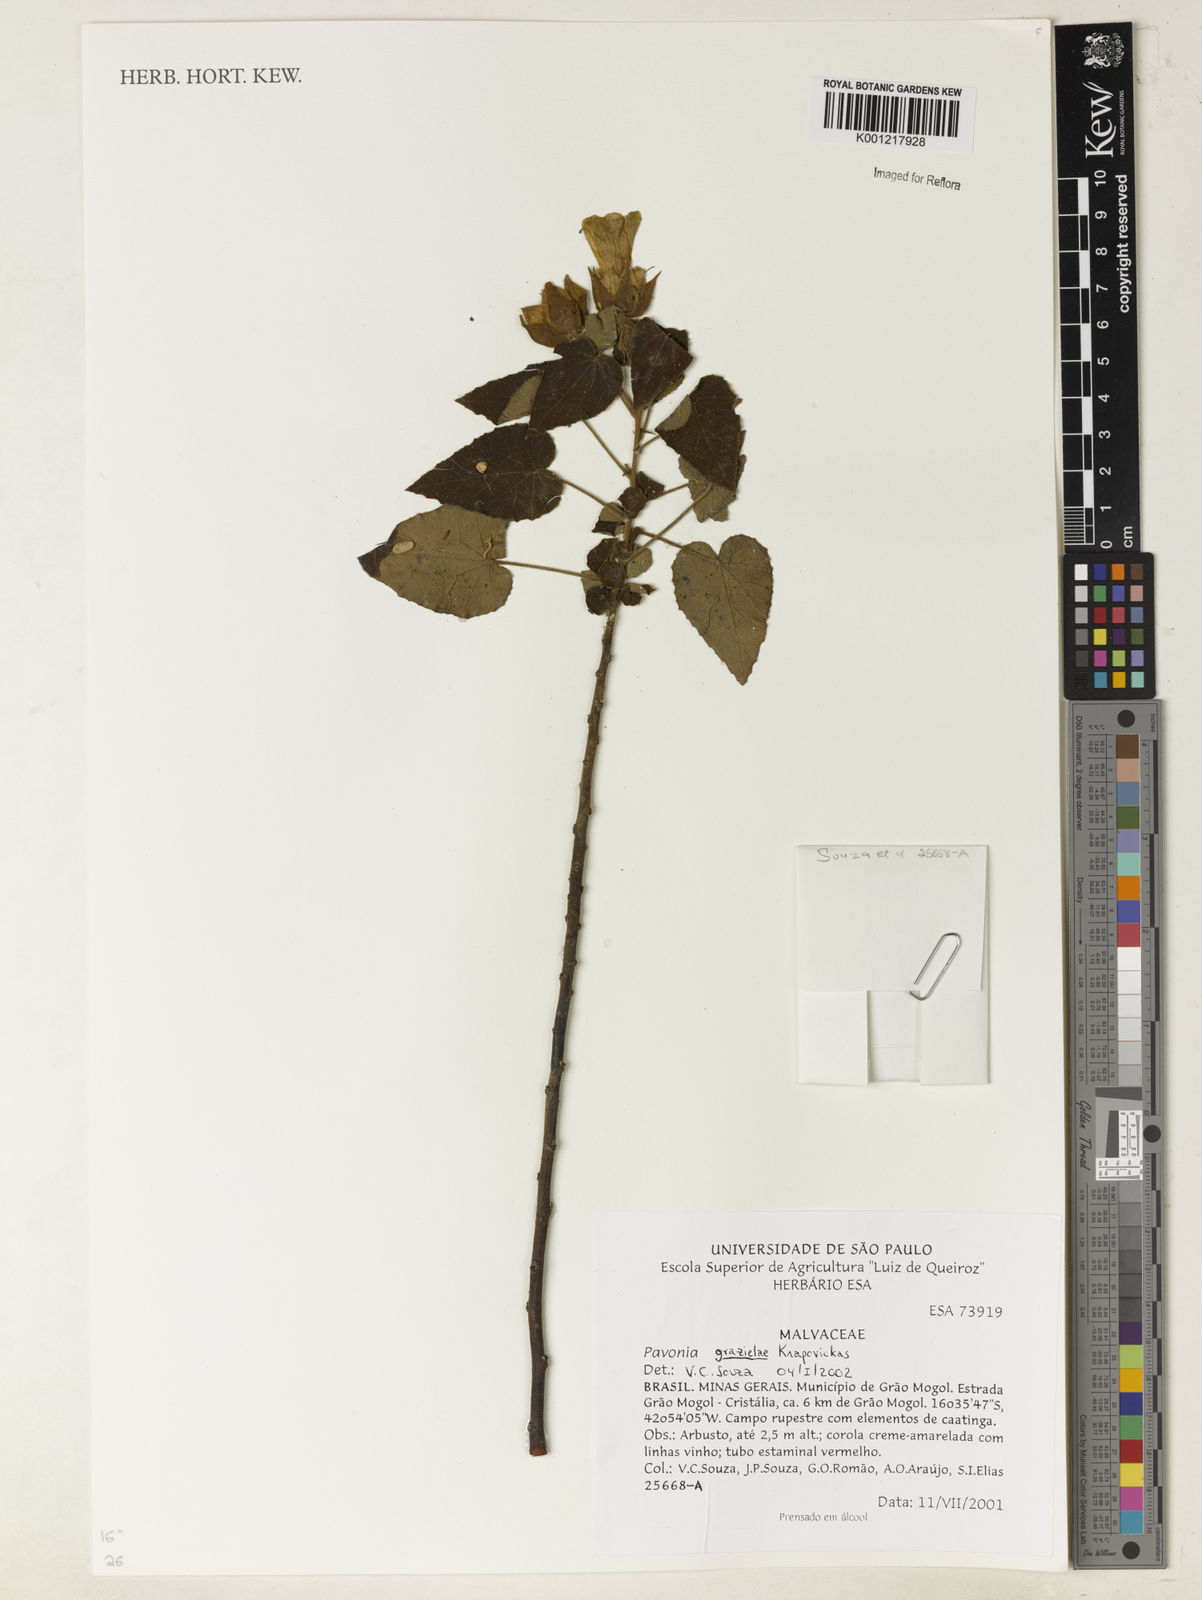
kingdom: Plantae
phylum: Tracheophyta
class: Magnoliopsida
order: Malvales
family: Malvaceae
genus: Pavonia
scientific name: Pavonia grazielae
